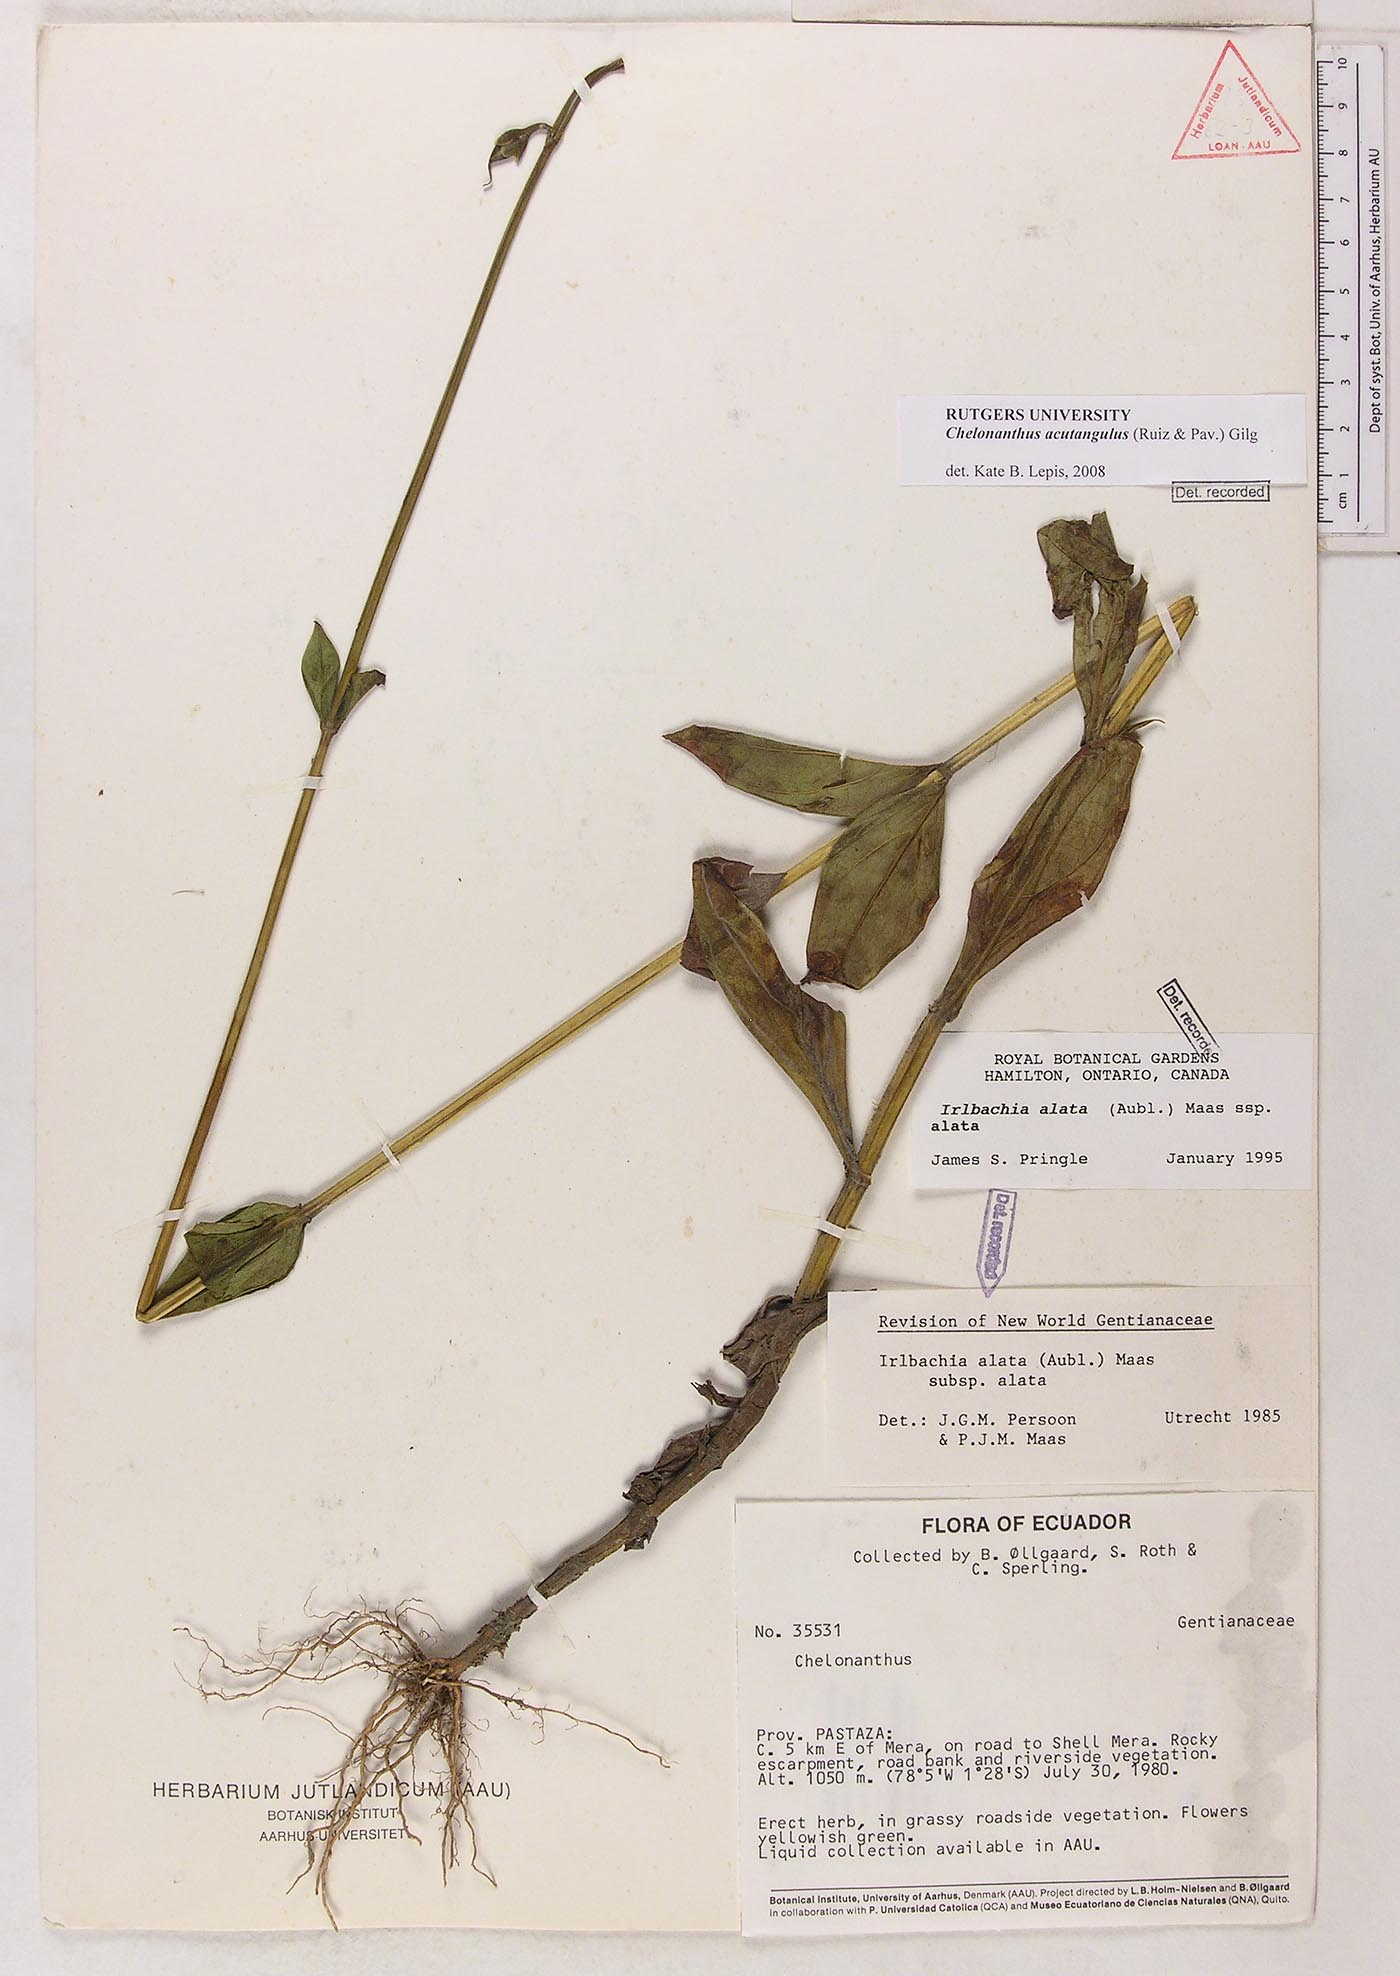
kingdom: Plantae
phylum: Tracheophyta
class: Magnoliopsida
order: Gentianales
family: Gentianaceae
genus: Chelonanthus
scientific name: Chelonanthus alatus
